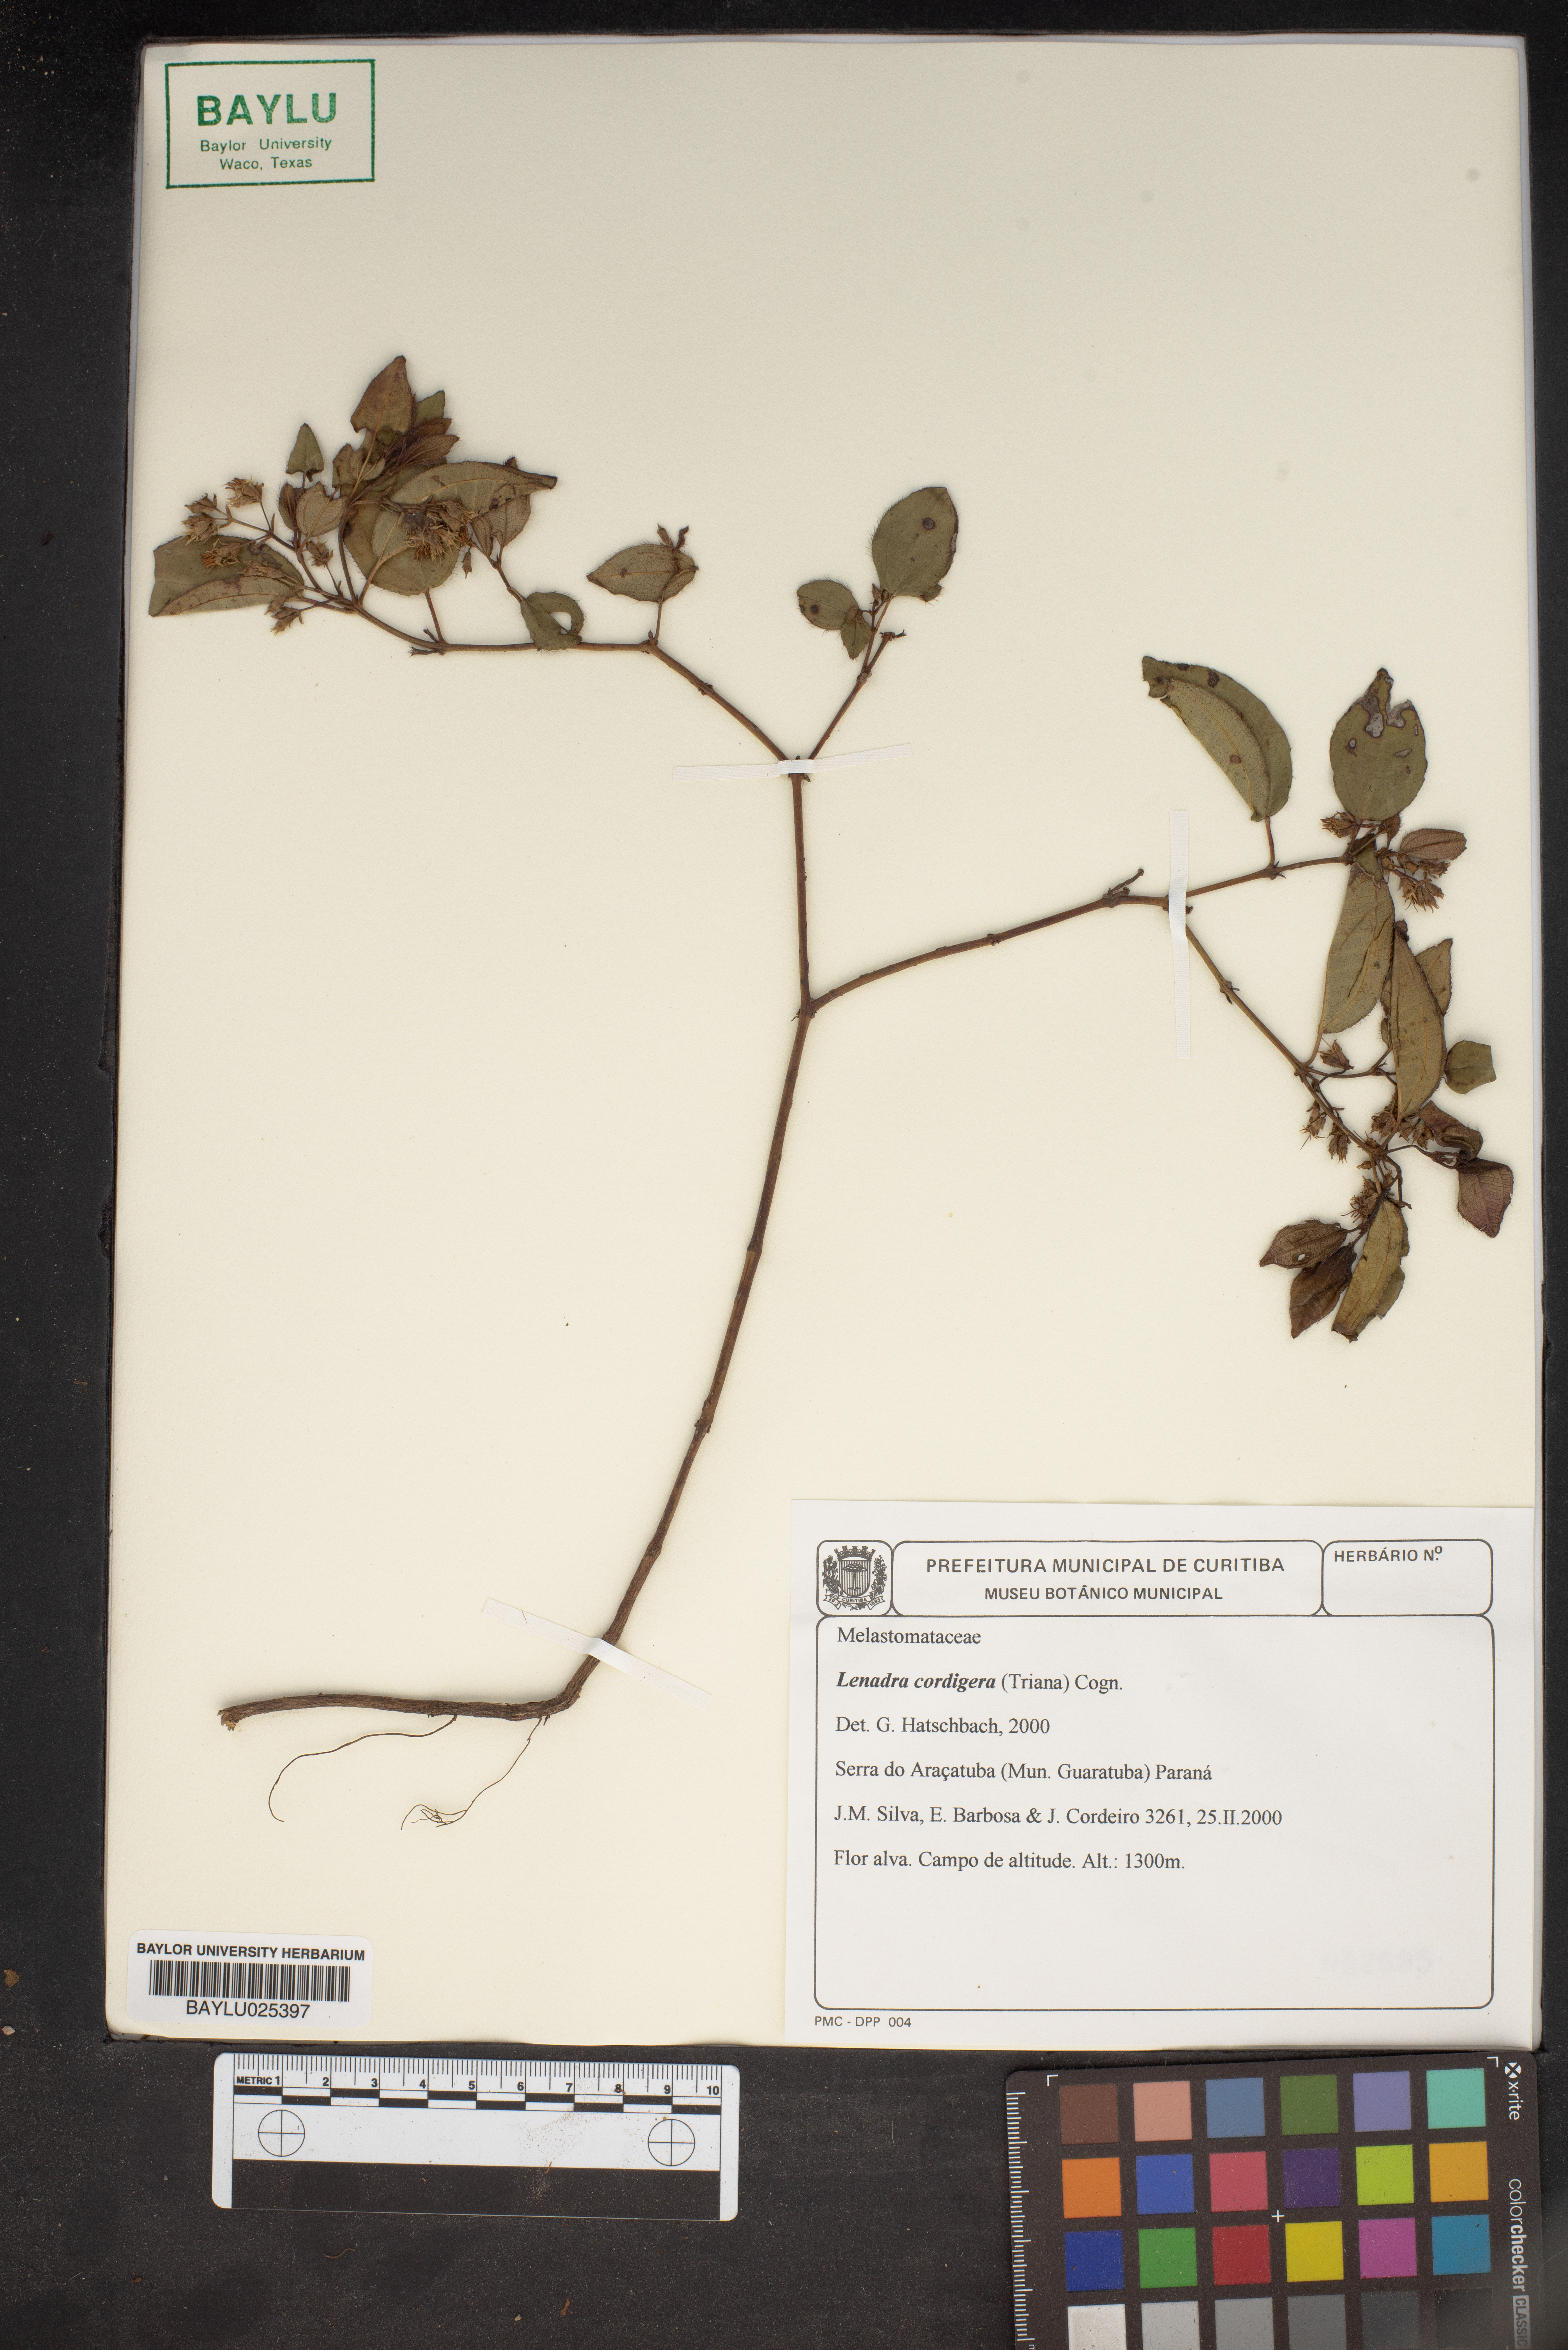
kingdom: Plantae
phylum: Tracheophyta
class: Magnoliopsida
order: Myrtales
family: Melastomataceae
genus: Miconia
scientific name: Miconia cordigera
